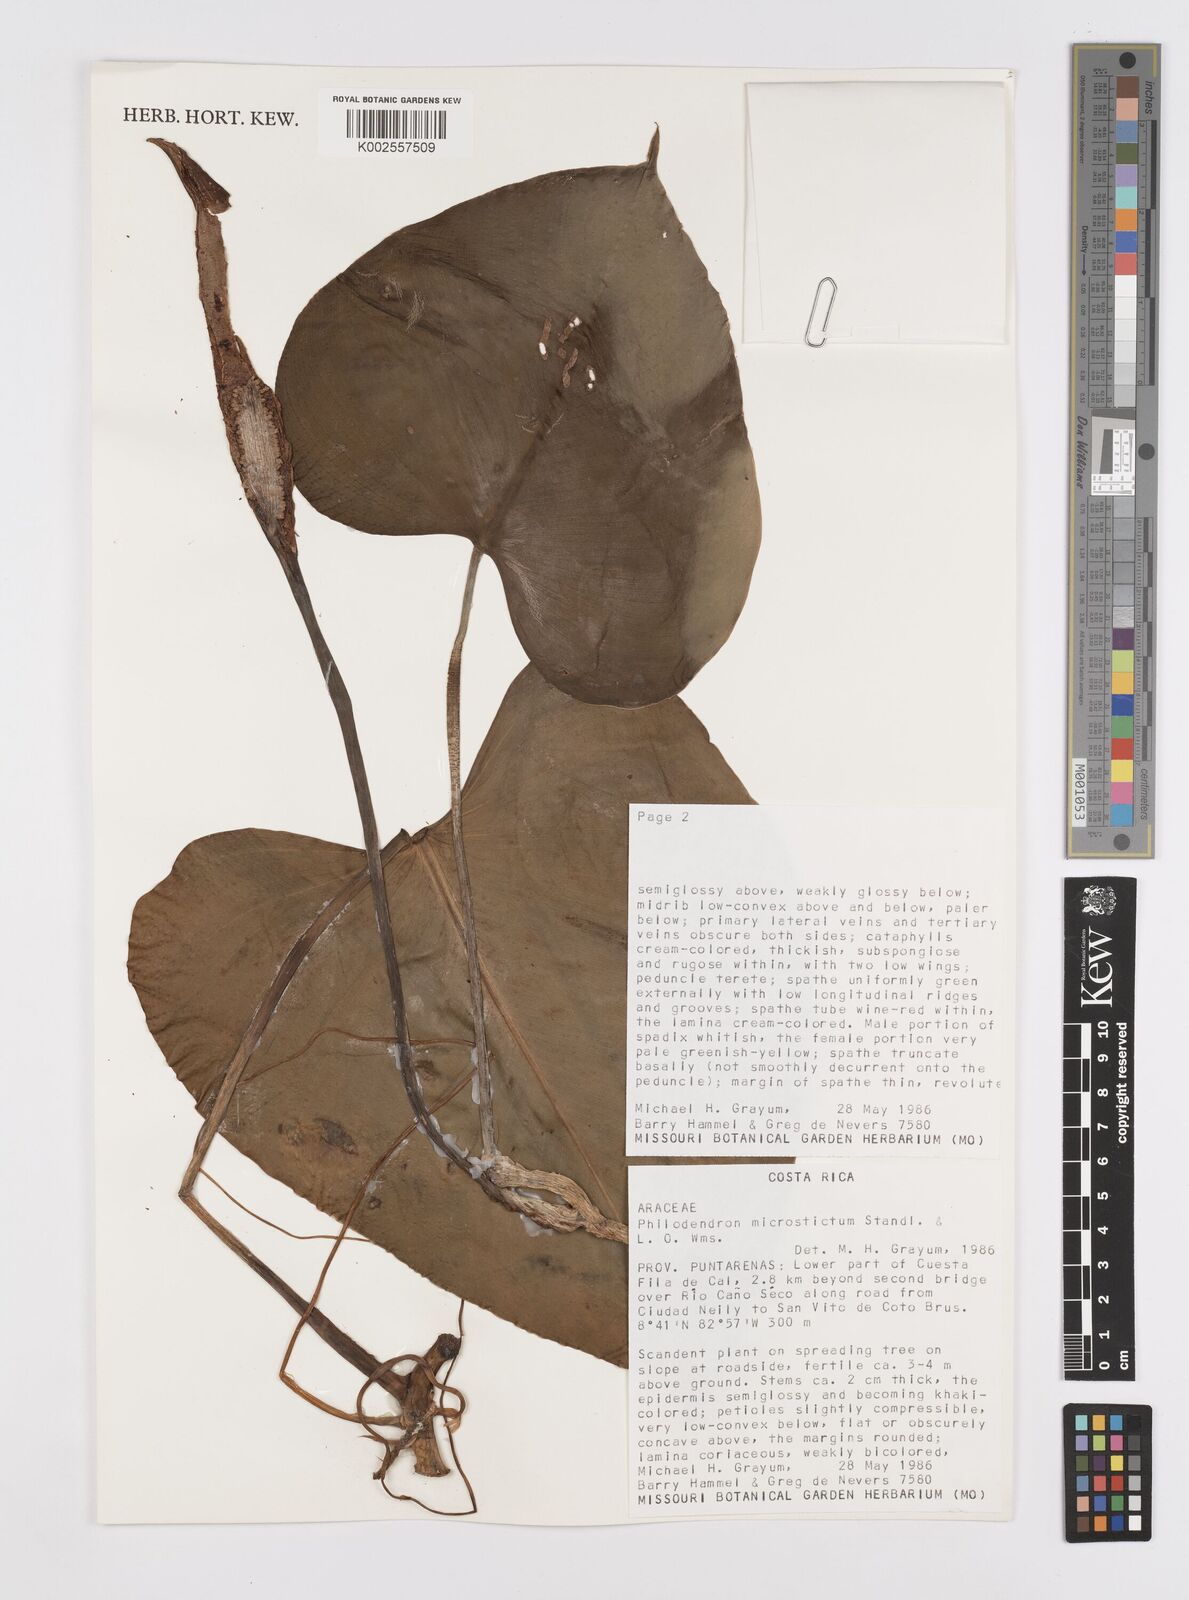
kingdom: Plantae
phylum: Tracheophyta
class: Liliopsida
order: Alismatales
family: Araceae
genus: Philodendron
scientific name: Philodendron microstictum
